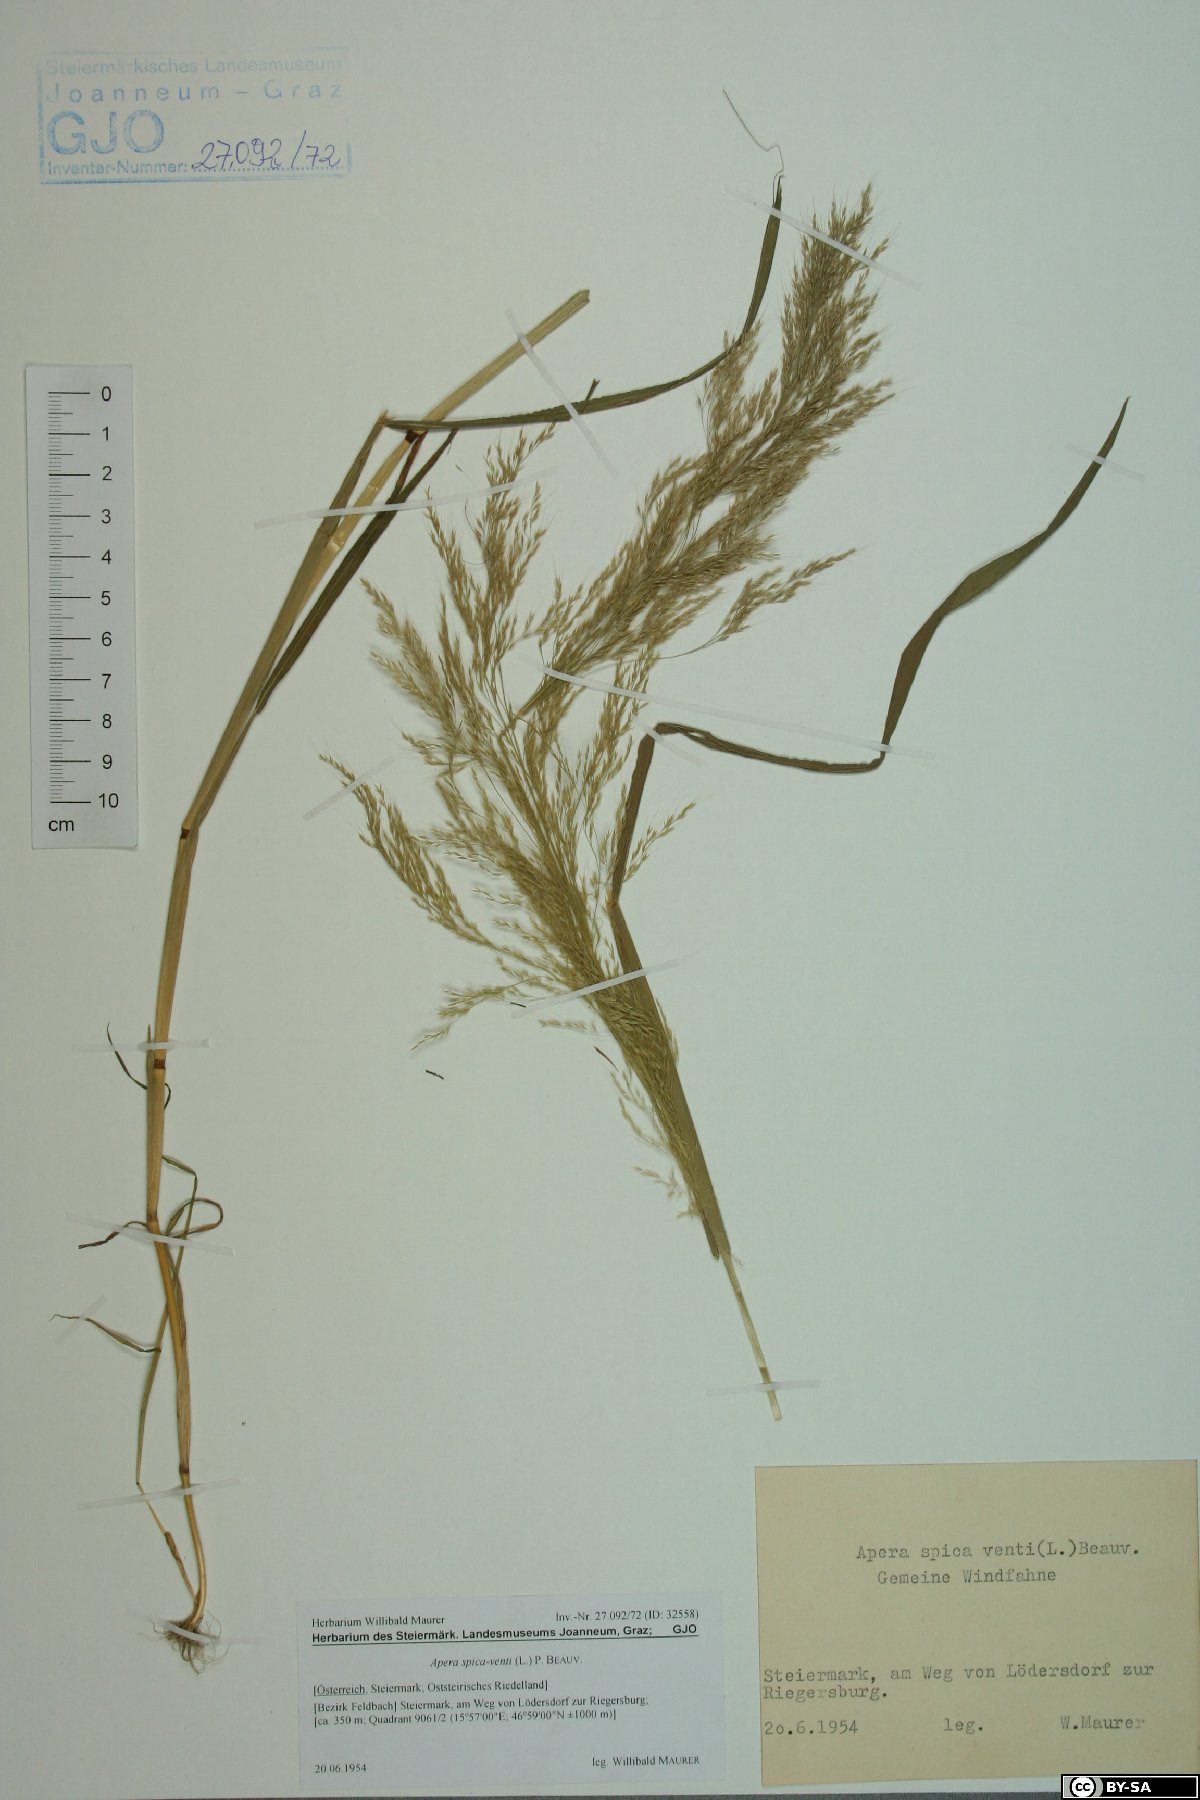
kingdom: Plantae
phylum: Tracheophyta
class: Liliopsida
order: Poales
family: Poaceae
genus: Apera
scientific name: Apera spica-venti
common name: Loose silky-bent
